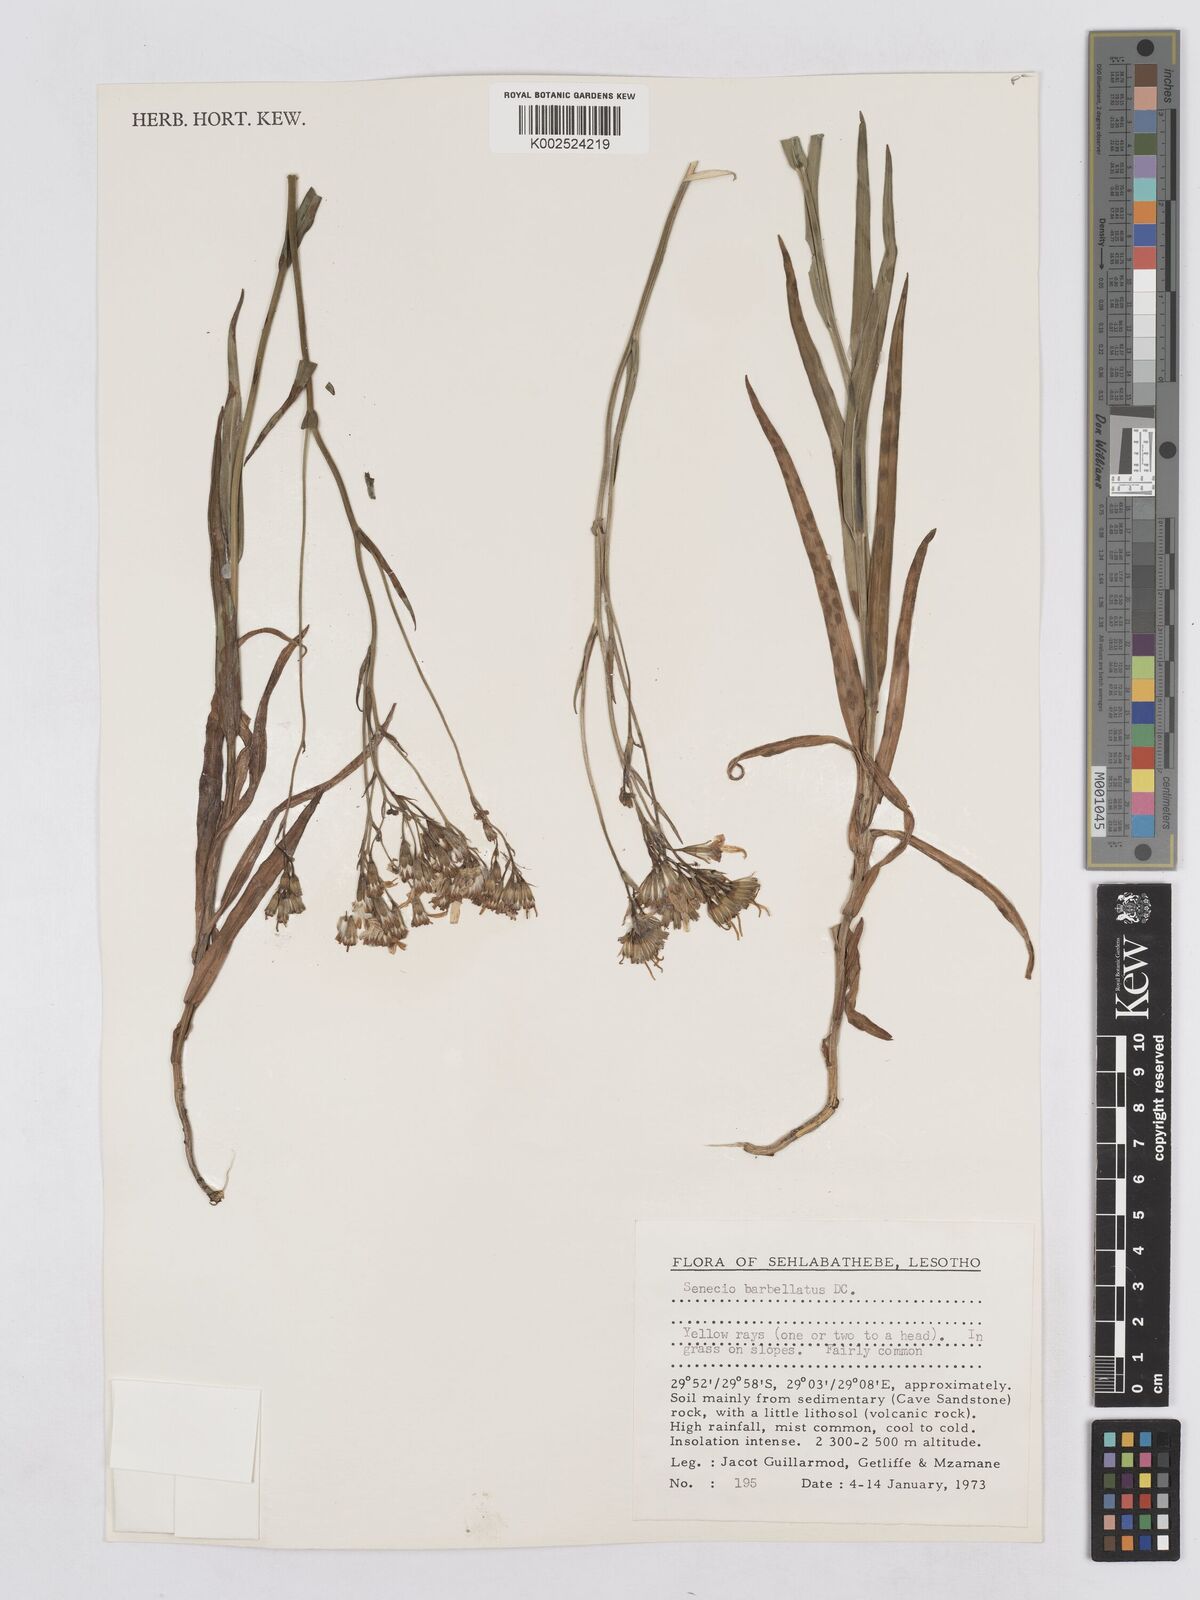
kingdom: Plantae
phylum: Tracheophyta
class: Magnoliopsida
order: Asterales
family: Asteraceae
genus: Senecio
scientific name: Senecio retrorsus
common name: Ragwort
